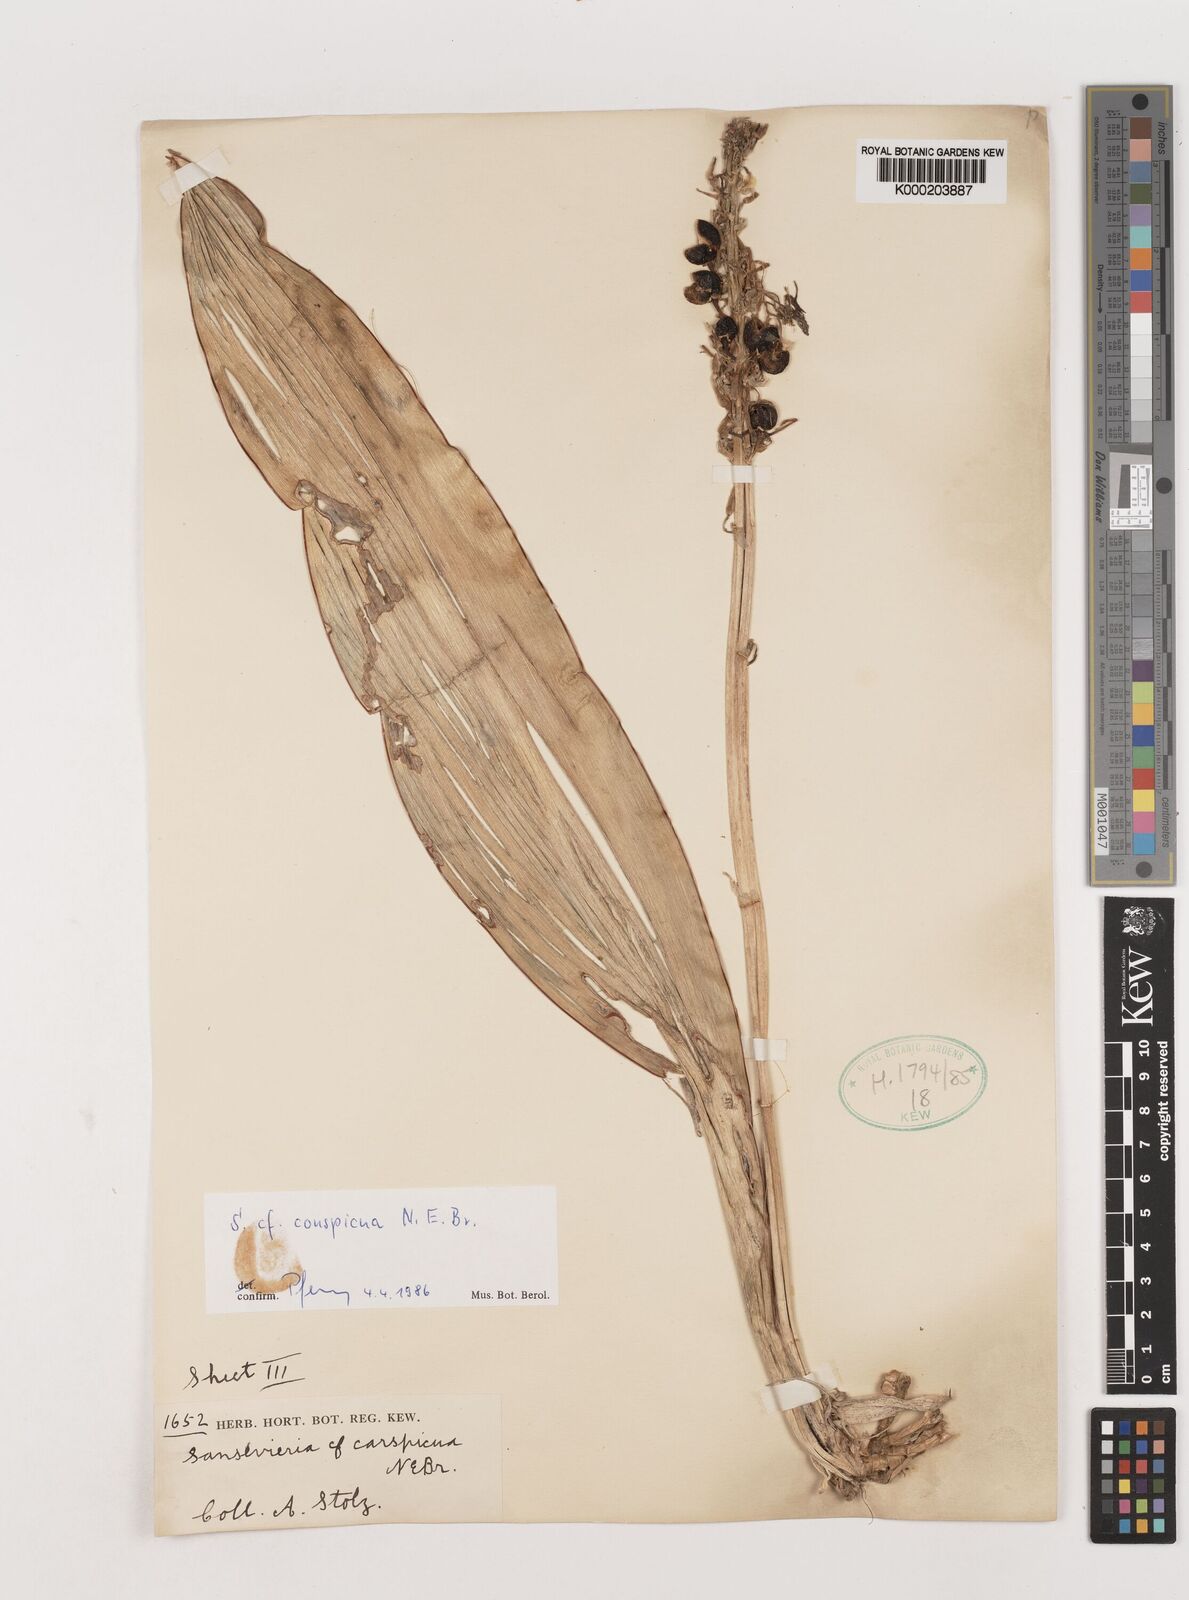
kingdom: Plantae
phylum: Tracheophyta
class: Liliopsida
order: Asparagales
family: Asparagaceae
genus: Dracaena
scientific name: Dracaena conspicua
